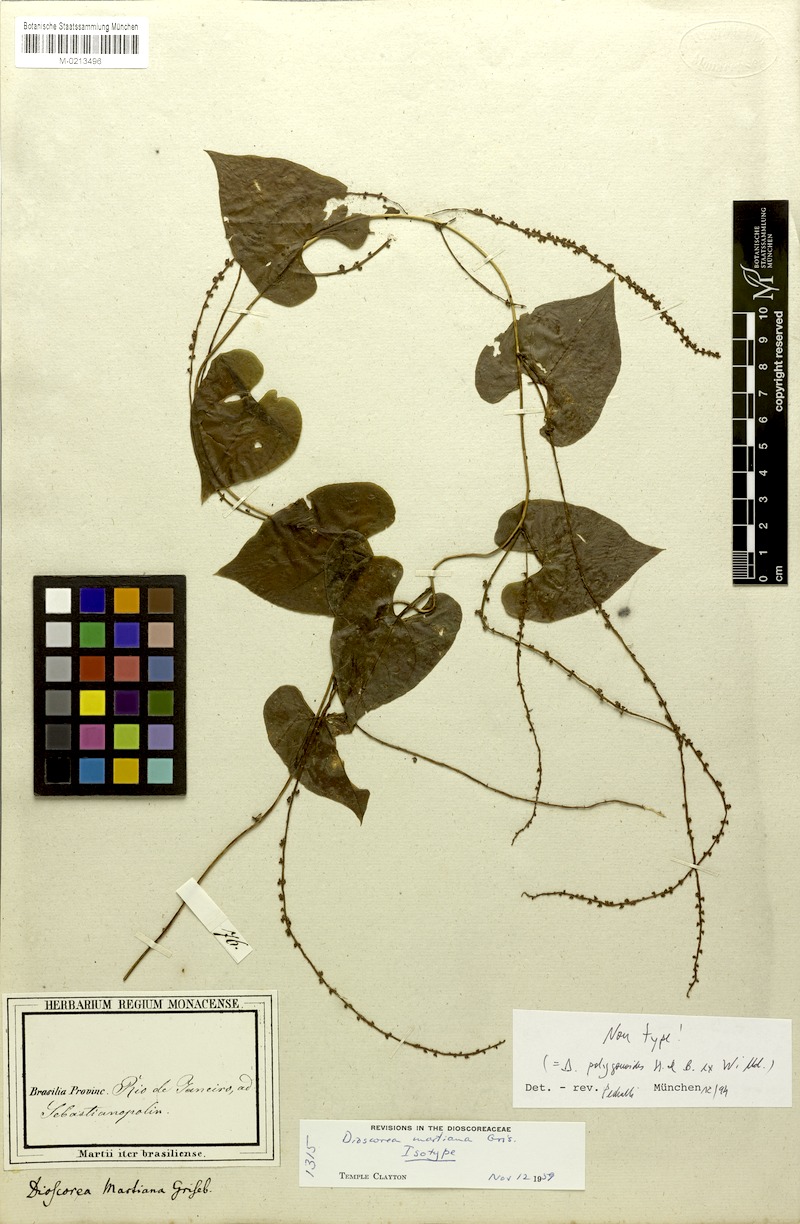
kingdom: Plantae
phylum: Tracheophyta
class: Liliopsida
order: Dioscoreales
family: Dioscoreaceae
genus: Dioscorea
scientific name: Dioscorea martiana
